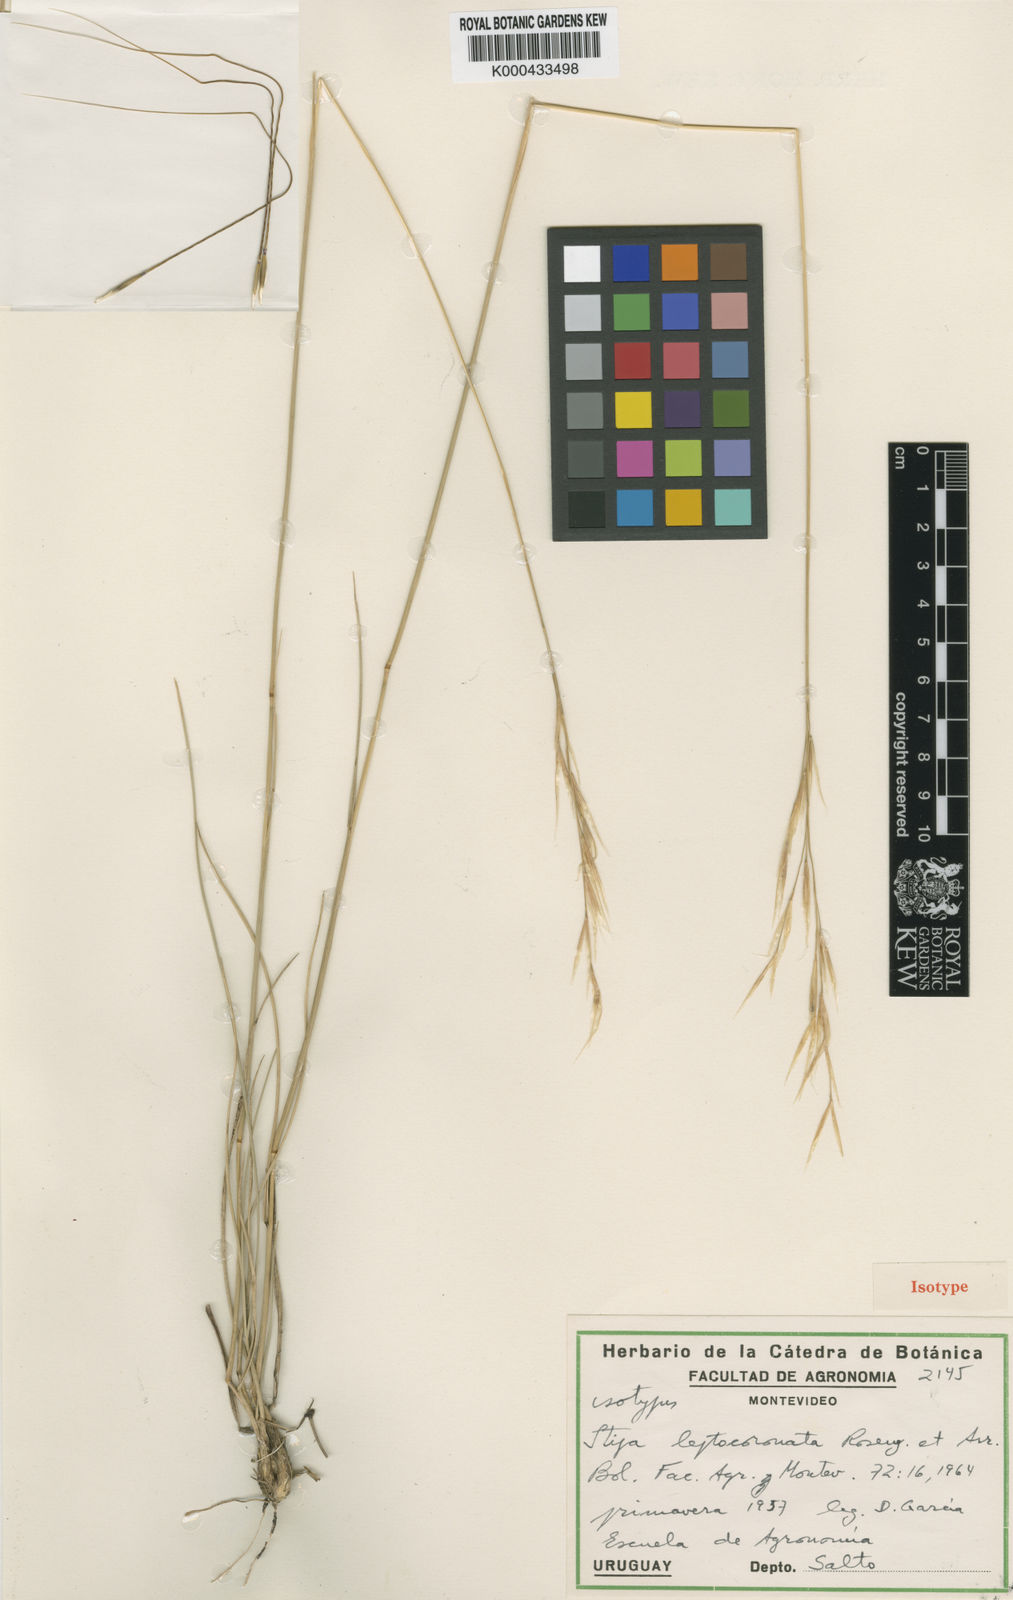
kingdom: Plantae
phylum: Tracheophyta
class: Liliopsida
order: Poales
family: Poaceae
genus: Nassella
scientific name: Nassella leptocoronata
